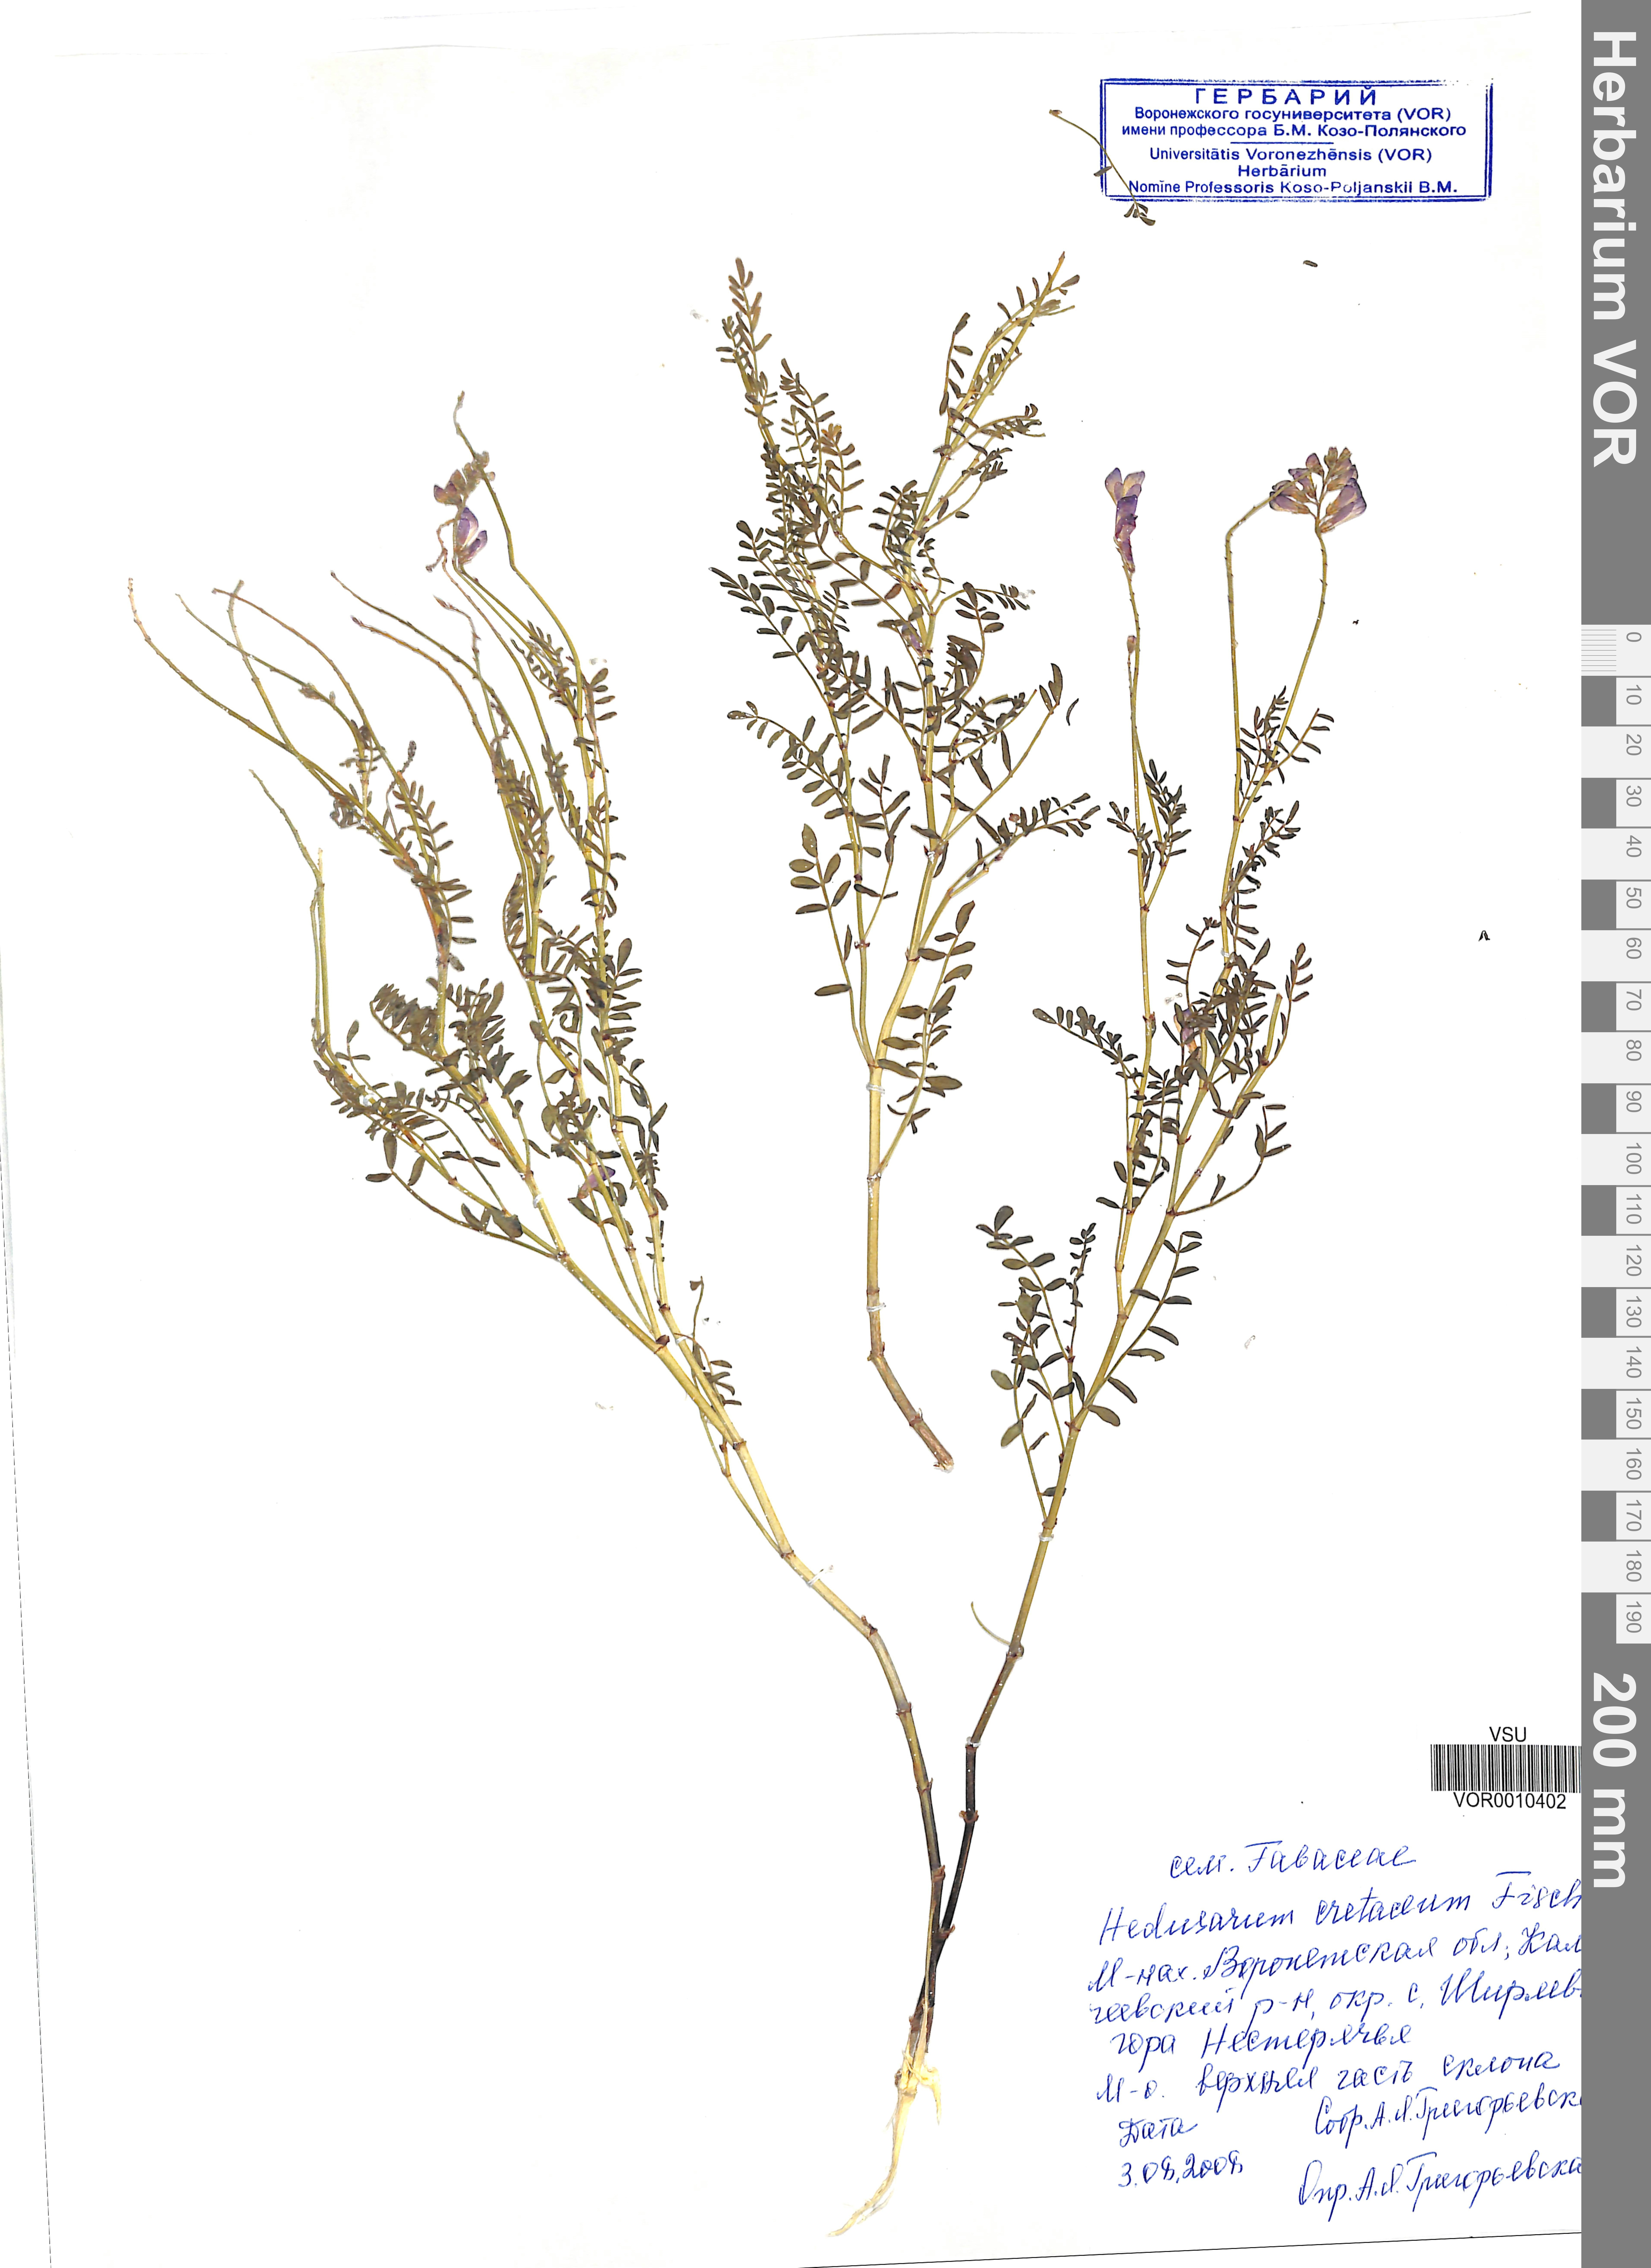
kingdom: Plantae
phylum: Tracheophyta
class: Magnoliopsida
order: Fabales
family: Fabaceae
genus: Hedysarum
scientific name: Hedysarum cretaceum
